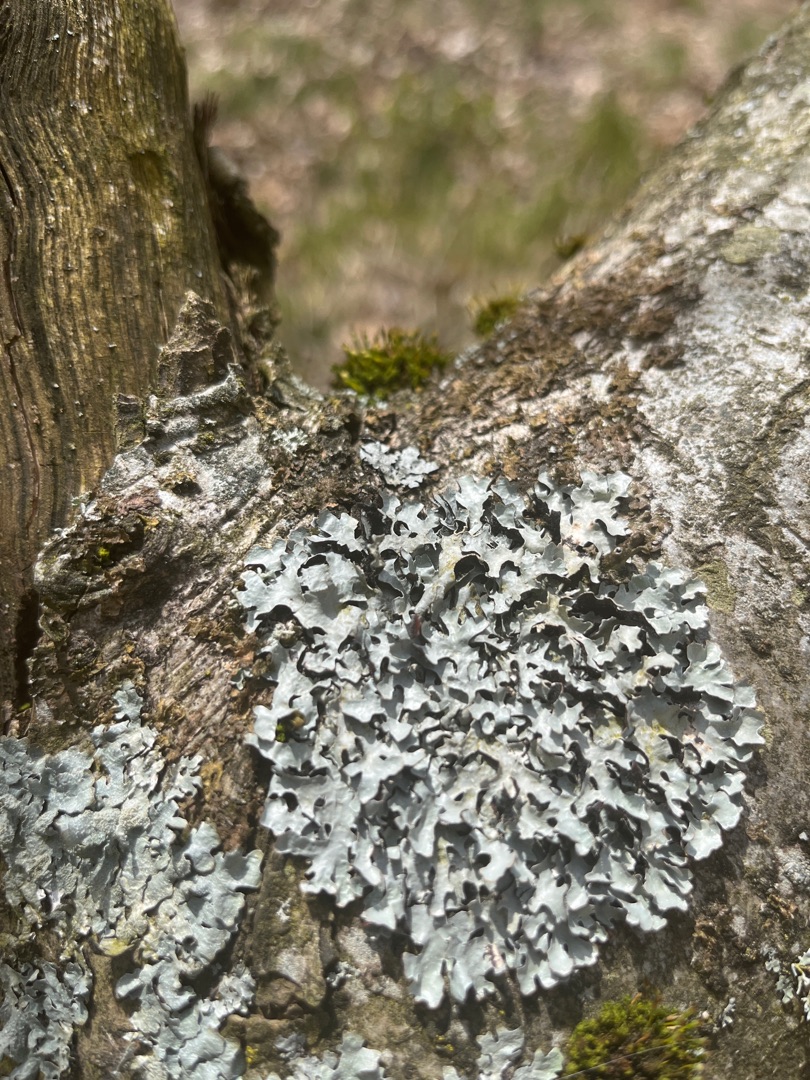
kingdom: Fungi
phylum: Ascomycota
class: Lecanoromycetes
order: Lecanorales
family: Parmeliaceae
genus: Parmelia
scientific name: Parmelia sulcata
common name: Rynket skållav
